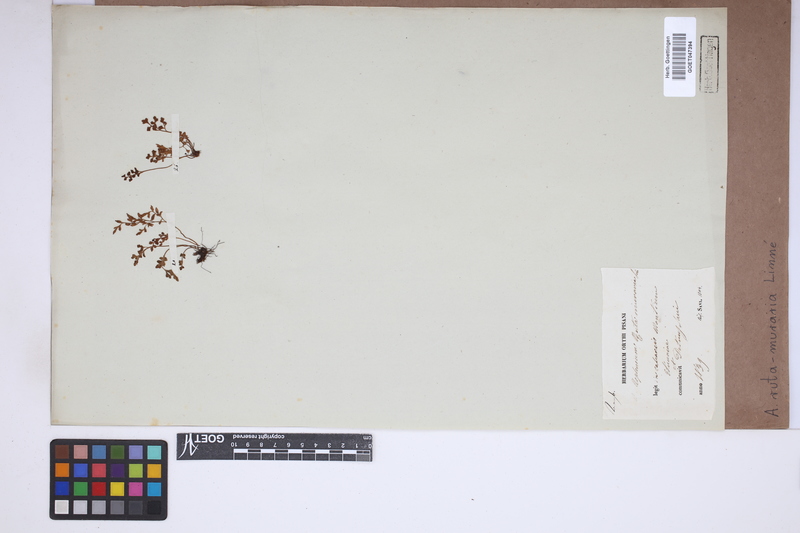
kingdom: Plantae
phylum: Tracheophyta
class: Polypodiopsida
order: Polypodiales
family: Aspleniaceae
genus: Asplenium
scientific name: Asplenium ruta-muraria
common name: Wall-rue
